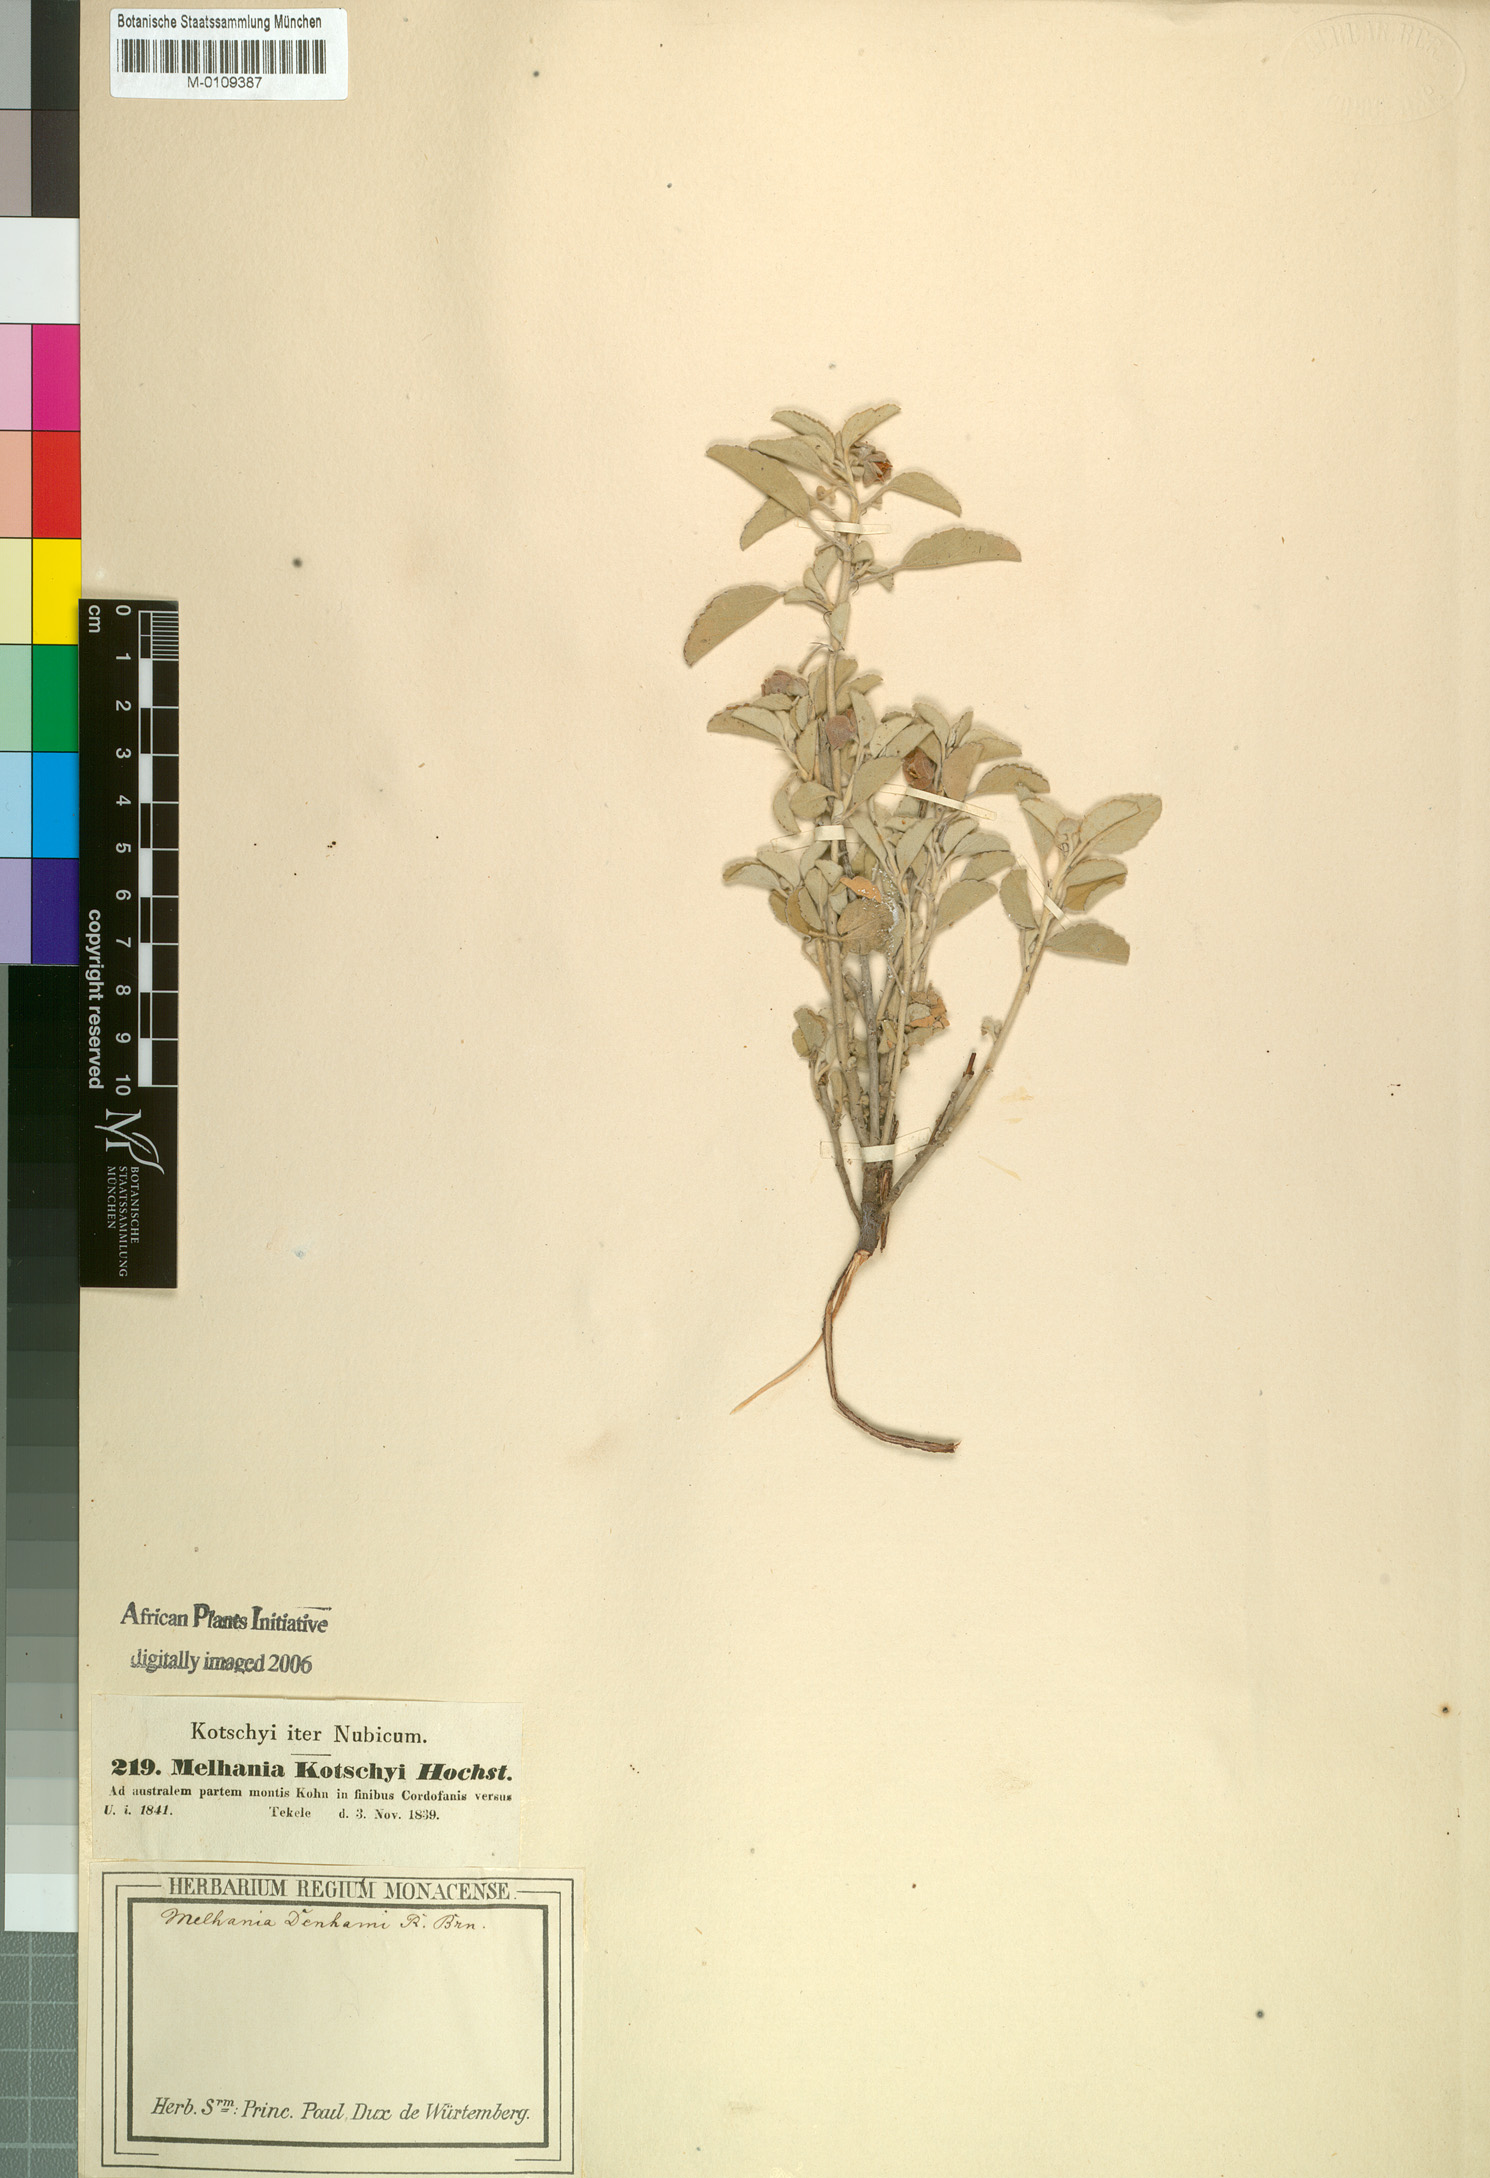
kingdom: Plantae
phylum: Tracheophyta
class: Magnoliopsida
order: Malvales
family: Malvaceae
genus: Melhania
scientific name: Melhania denhamii
